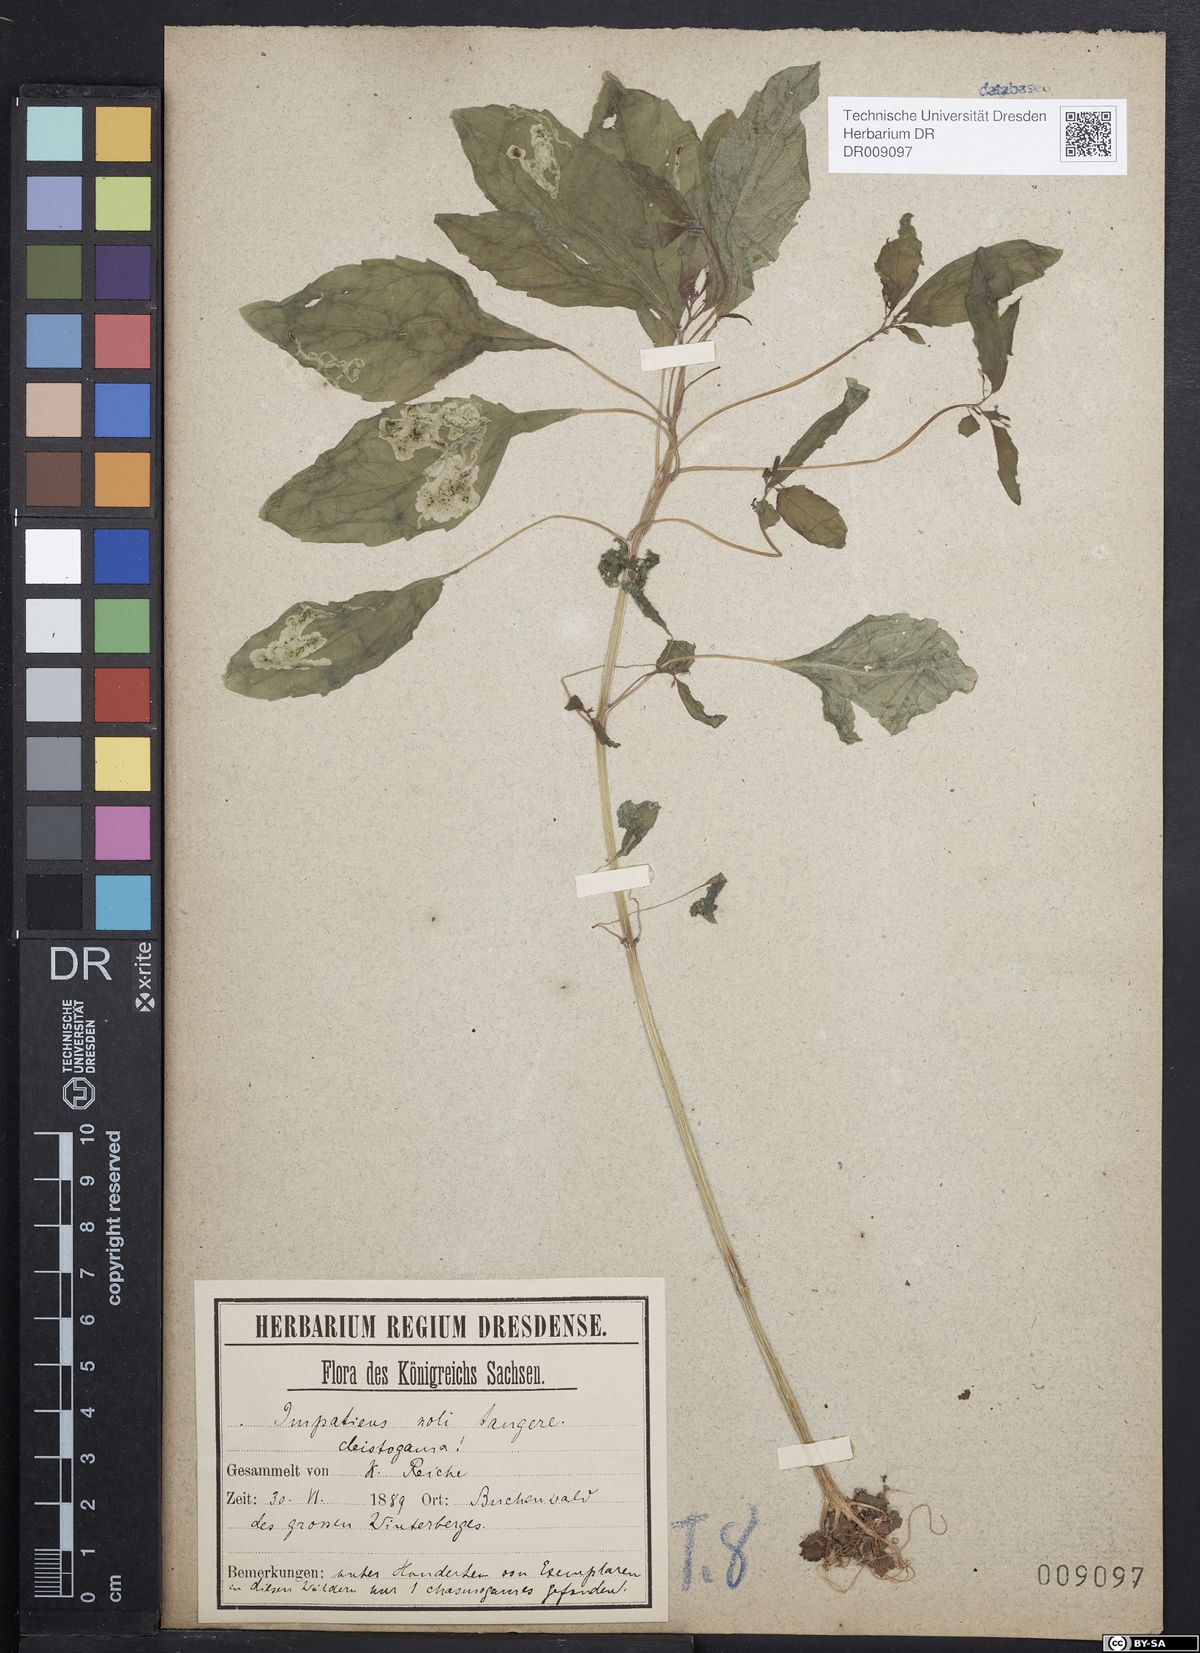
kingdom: Plantae
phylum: Tracheophyta
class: Magnoliopsida
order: Ericales
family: Balsaminaceae
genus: Impatiens
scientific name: Impatiens noli-tangere
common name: Touch-me-not balsam
